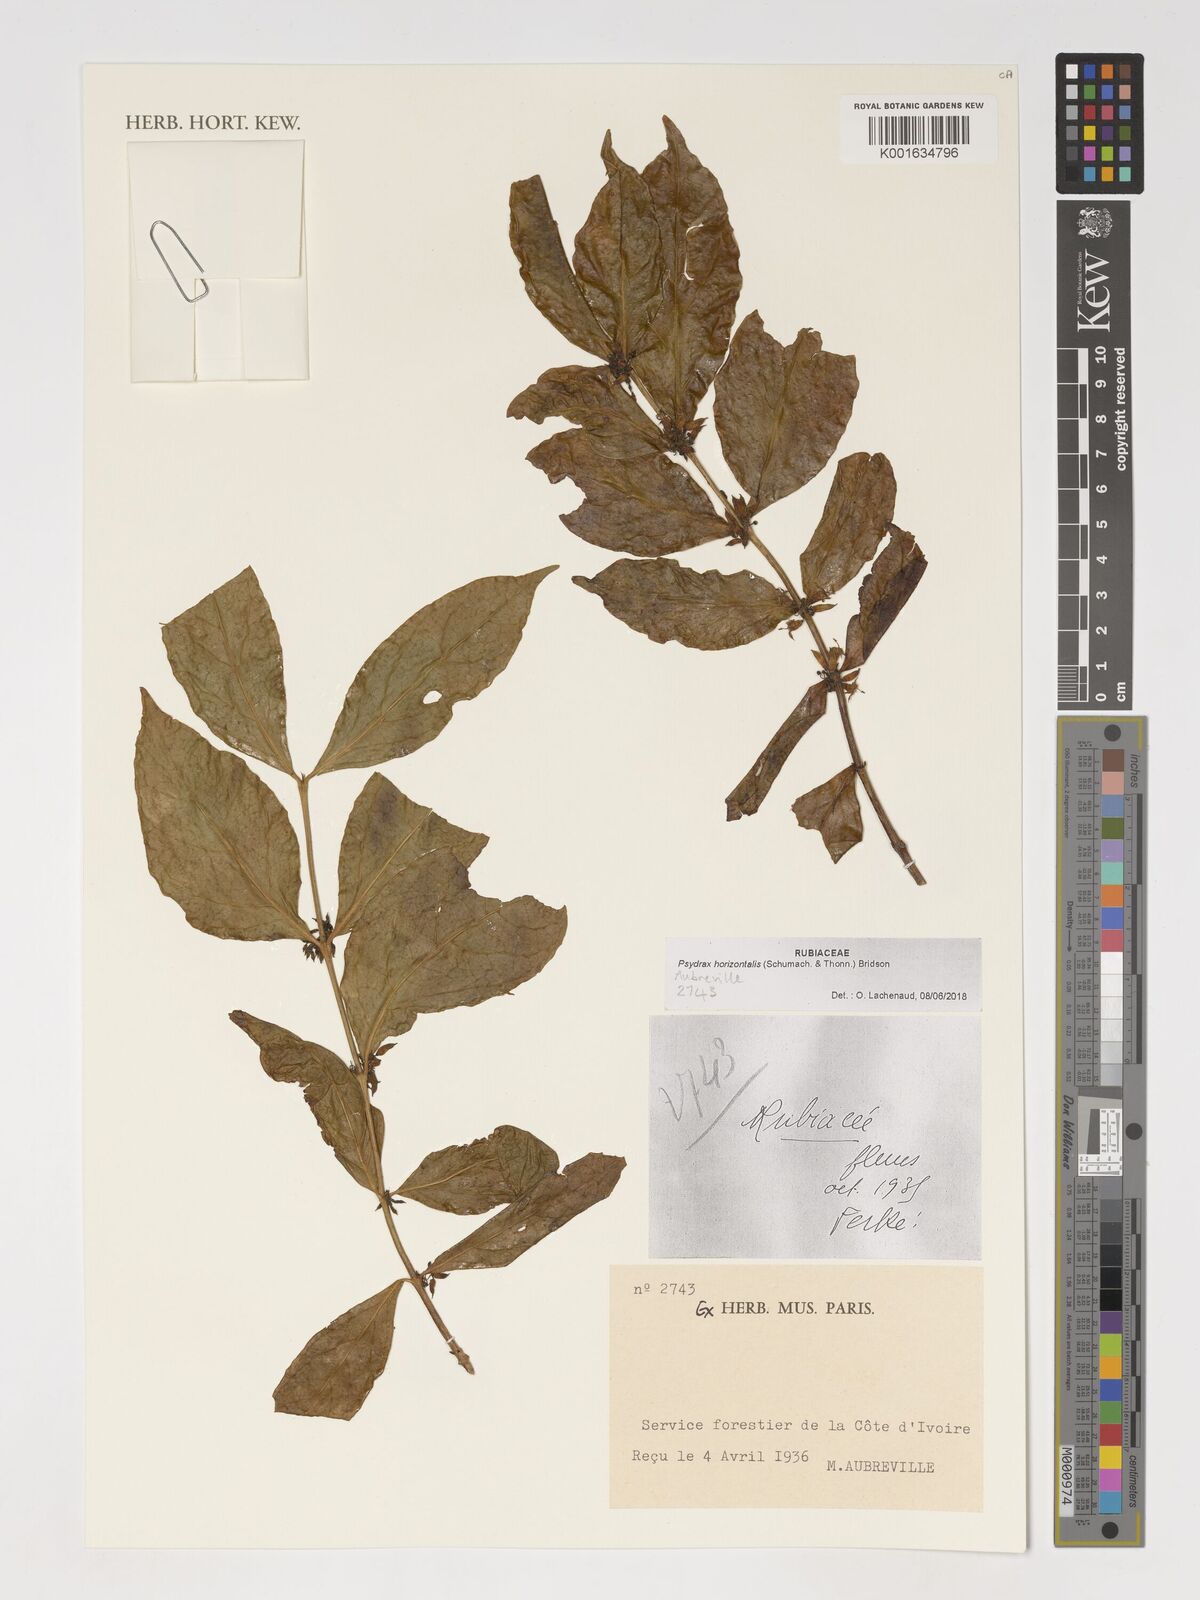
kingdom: Plantae
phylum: Tracheophyta
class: Magnoliopsida
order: Gentianales
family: Rubiaceae
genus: Psydrax
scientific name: Psydrax horizontalis
